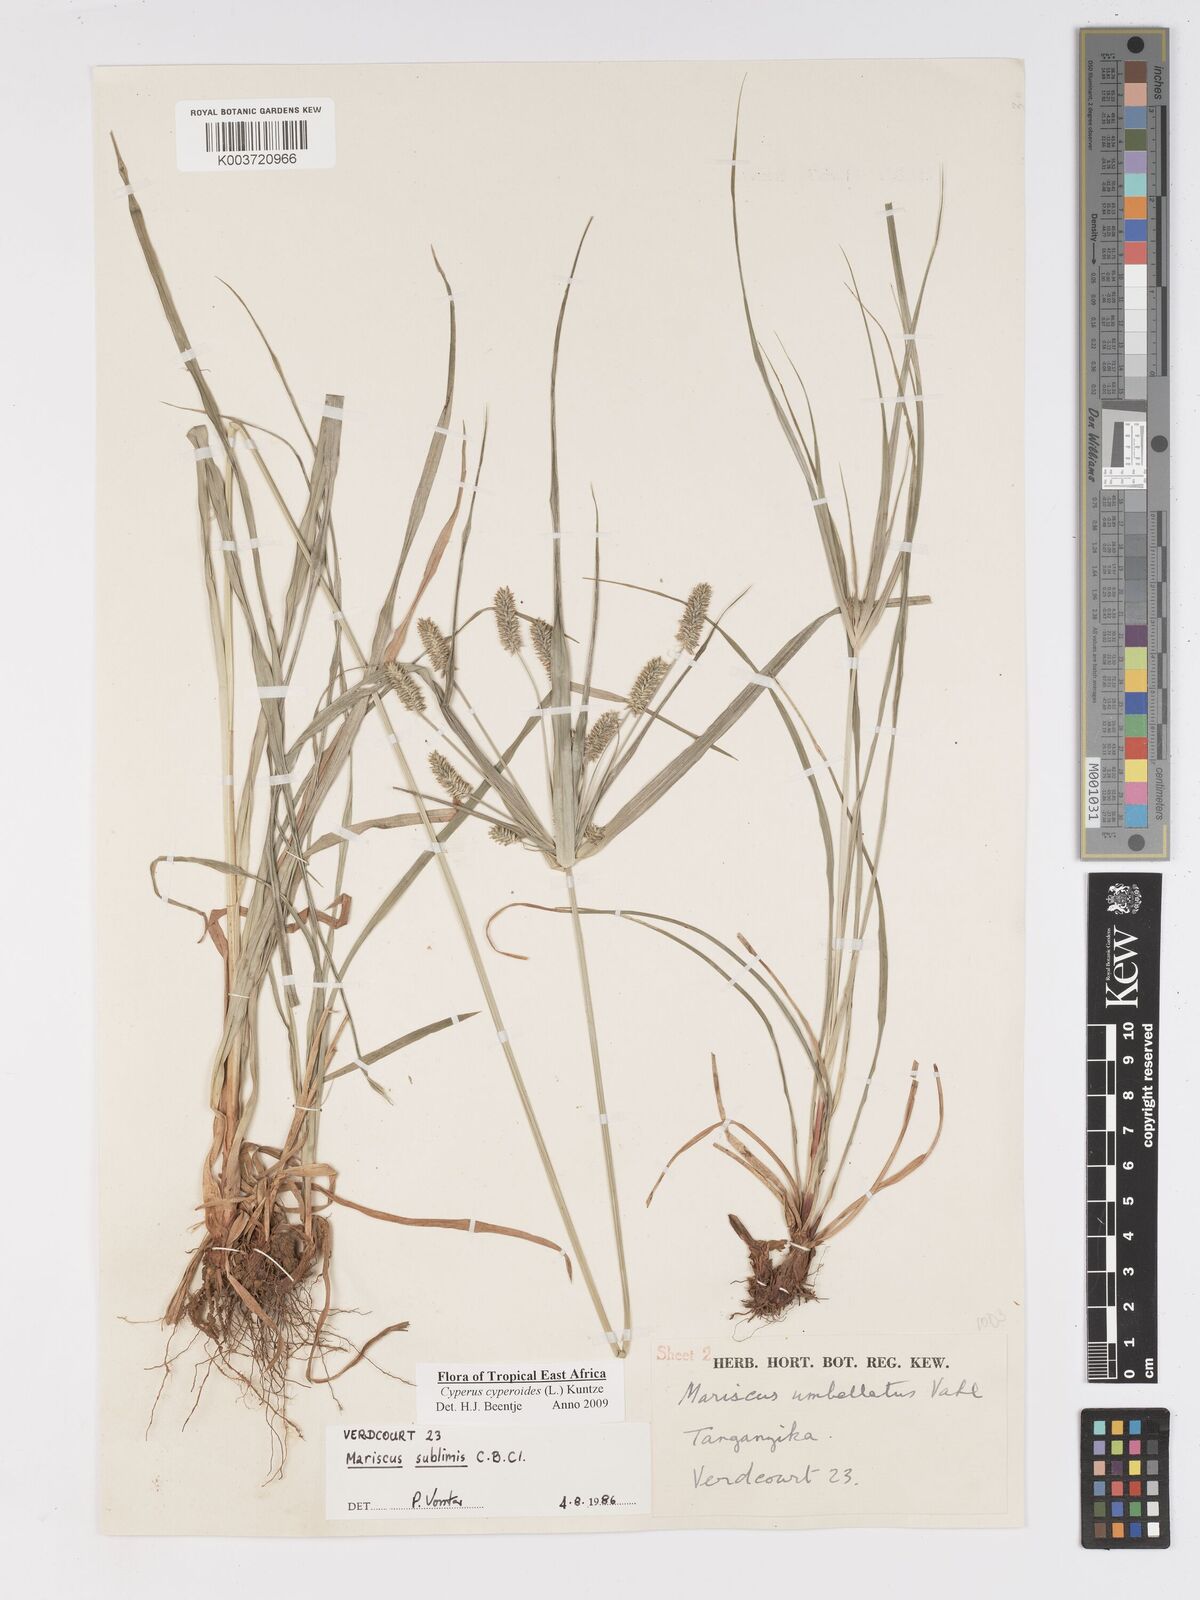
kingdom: Plantae
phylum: Tracheophyta
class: Liliopsida
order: Poales
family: Cyperaceae
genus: Cyperus
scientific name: Cyperus cyperoides
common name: Pacific island flat sedge
